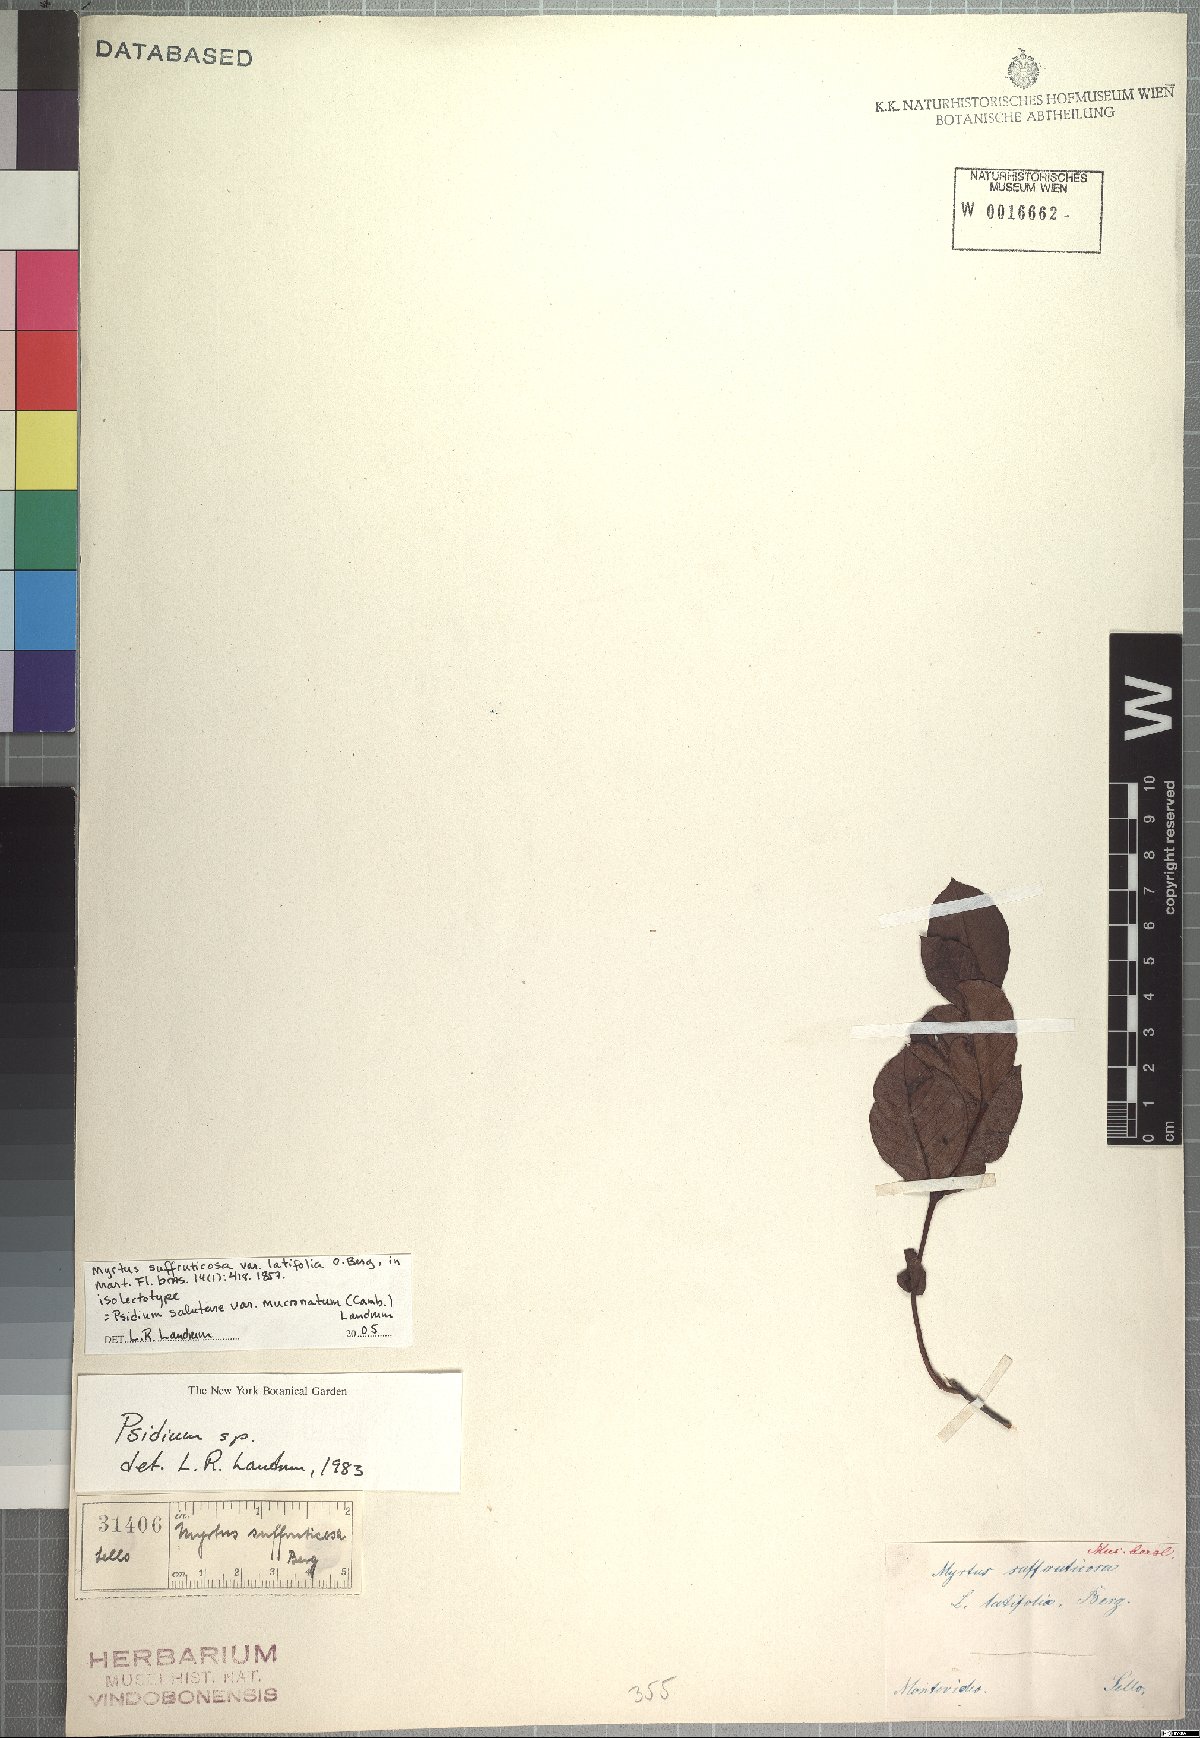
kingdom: Plantae
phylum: Tracheophyta
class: Magnoliopsida
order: Myrtales
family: Myrtaceae
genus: Psidium
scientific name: Psidium salutare
